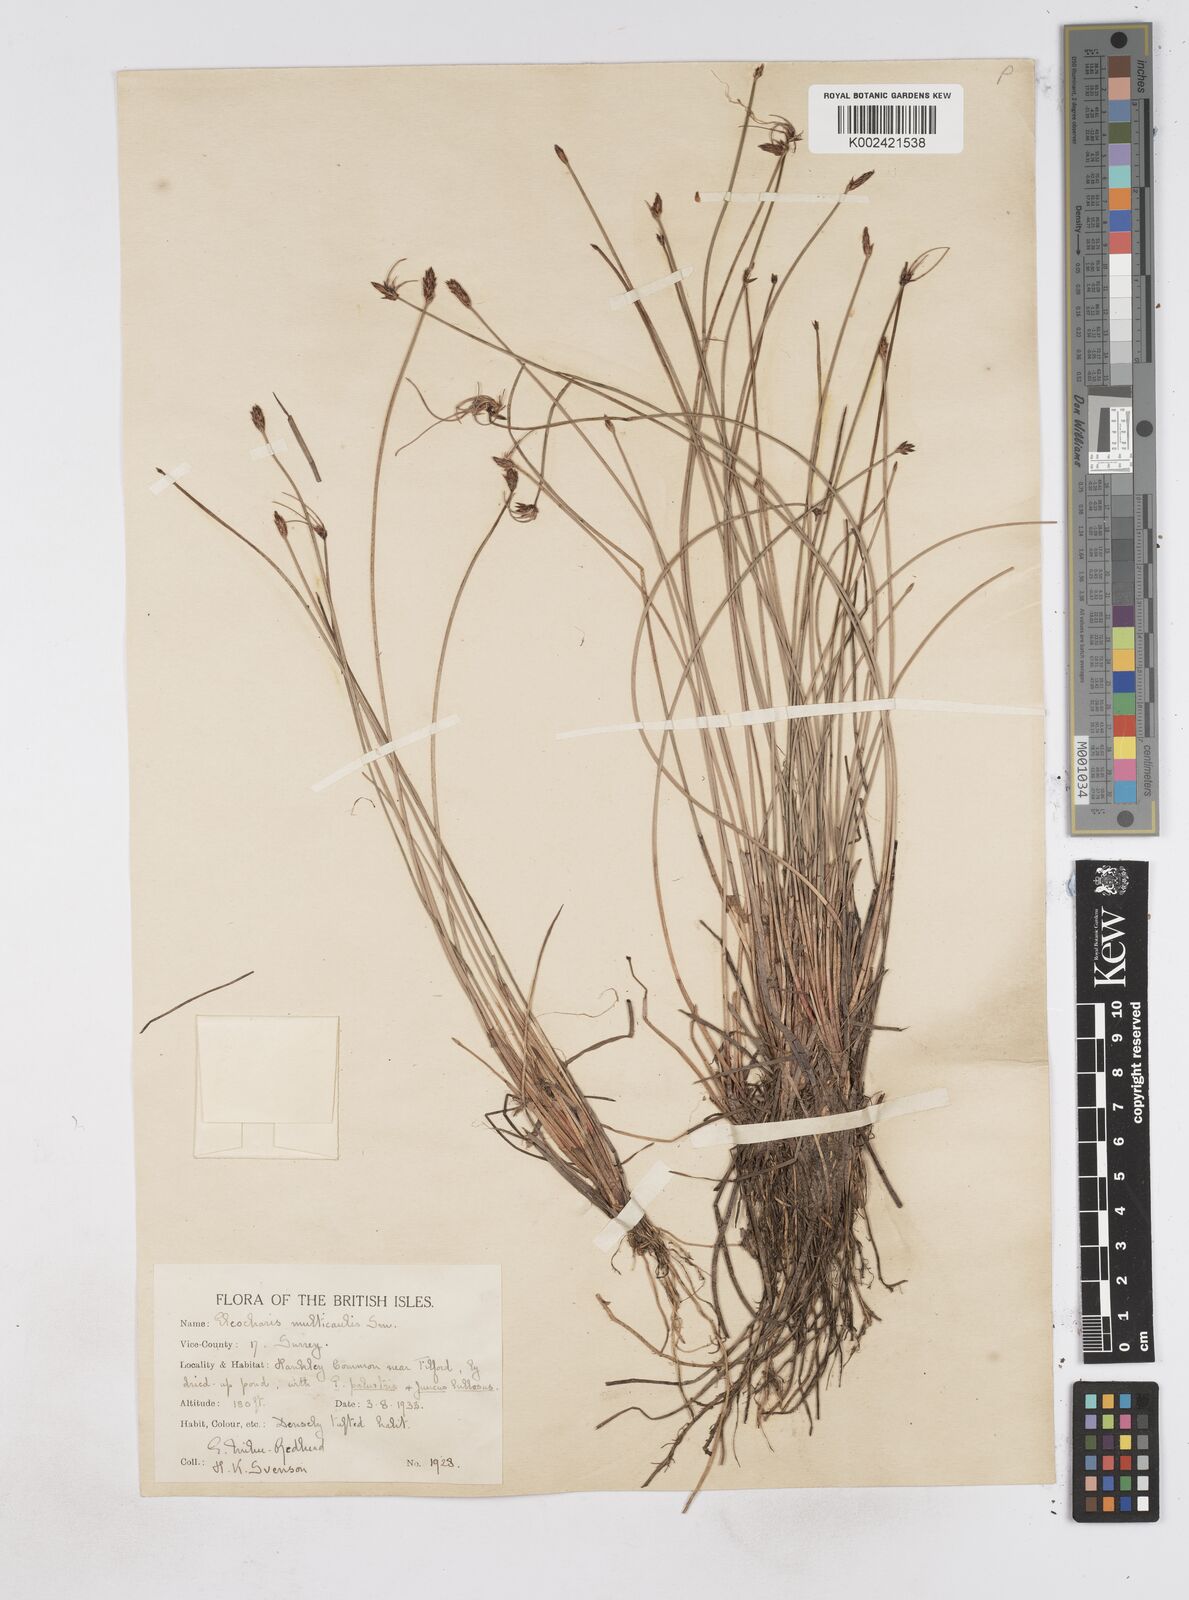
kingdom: Plantae
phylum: Tracheophyta
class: Liliopsida
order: Poales
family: Cyperaceae
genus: Eleocharis
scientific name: Eleocharis multicaulis
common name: Many-stalked spike-rush
